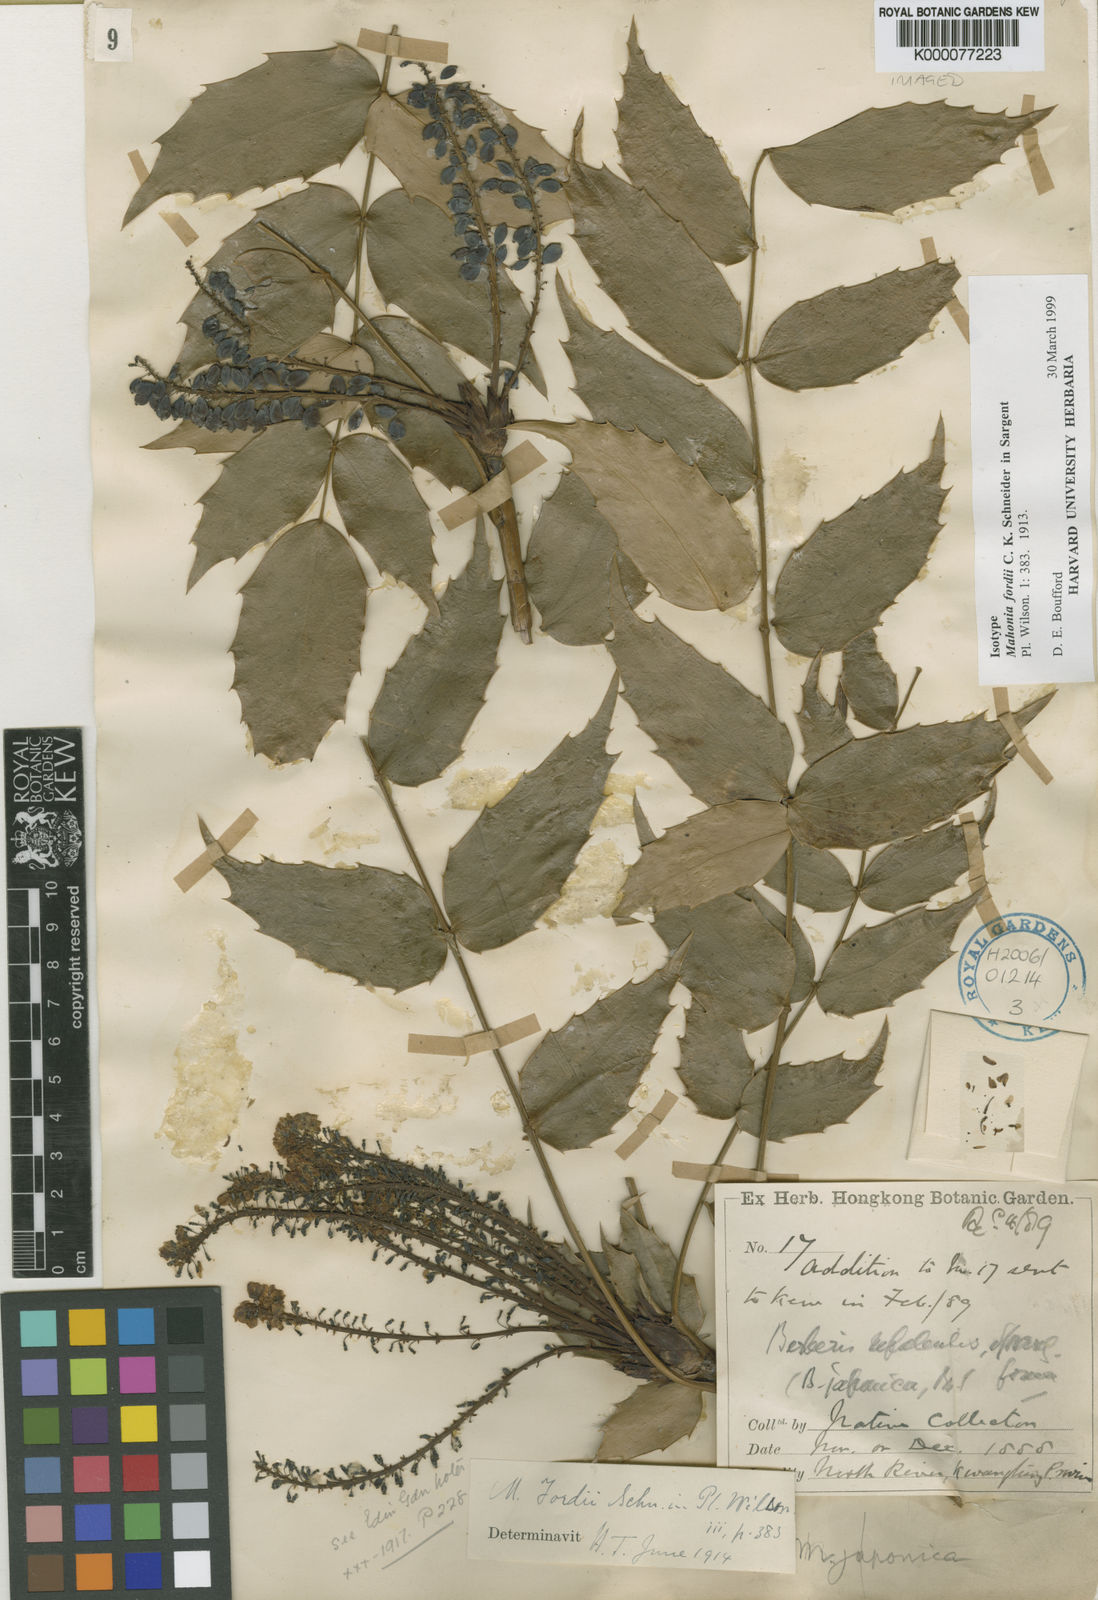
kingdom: Plantae
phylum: Tracheophyta
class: Magnoliopsida
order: Ranunculales
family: Berberidaceae
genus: Berberis
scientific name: Berberis fordii
